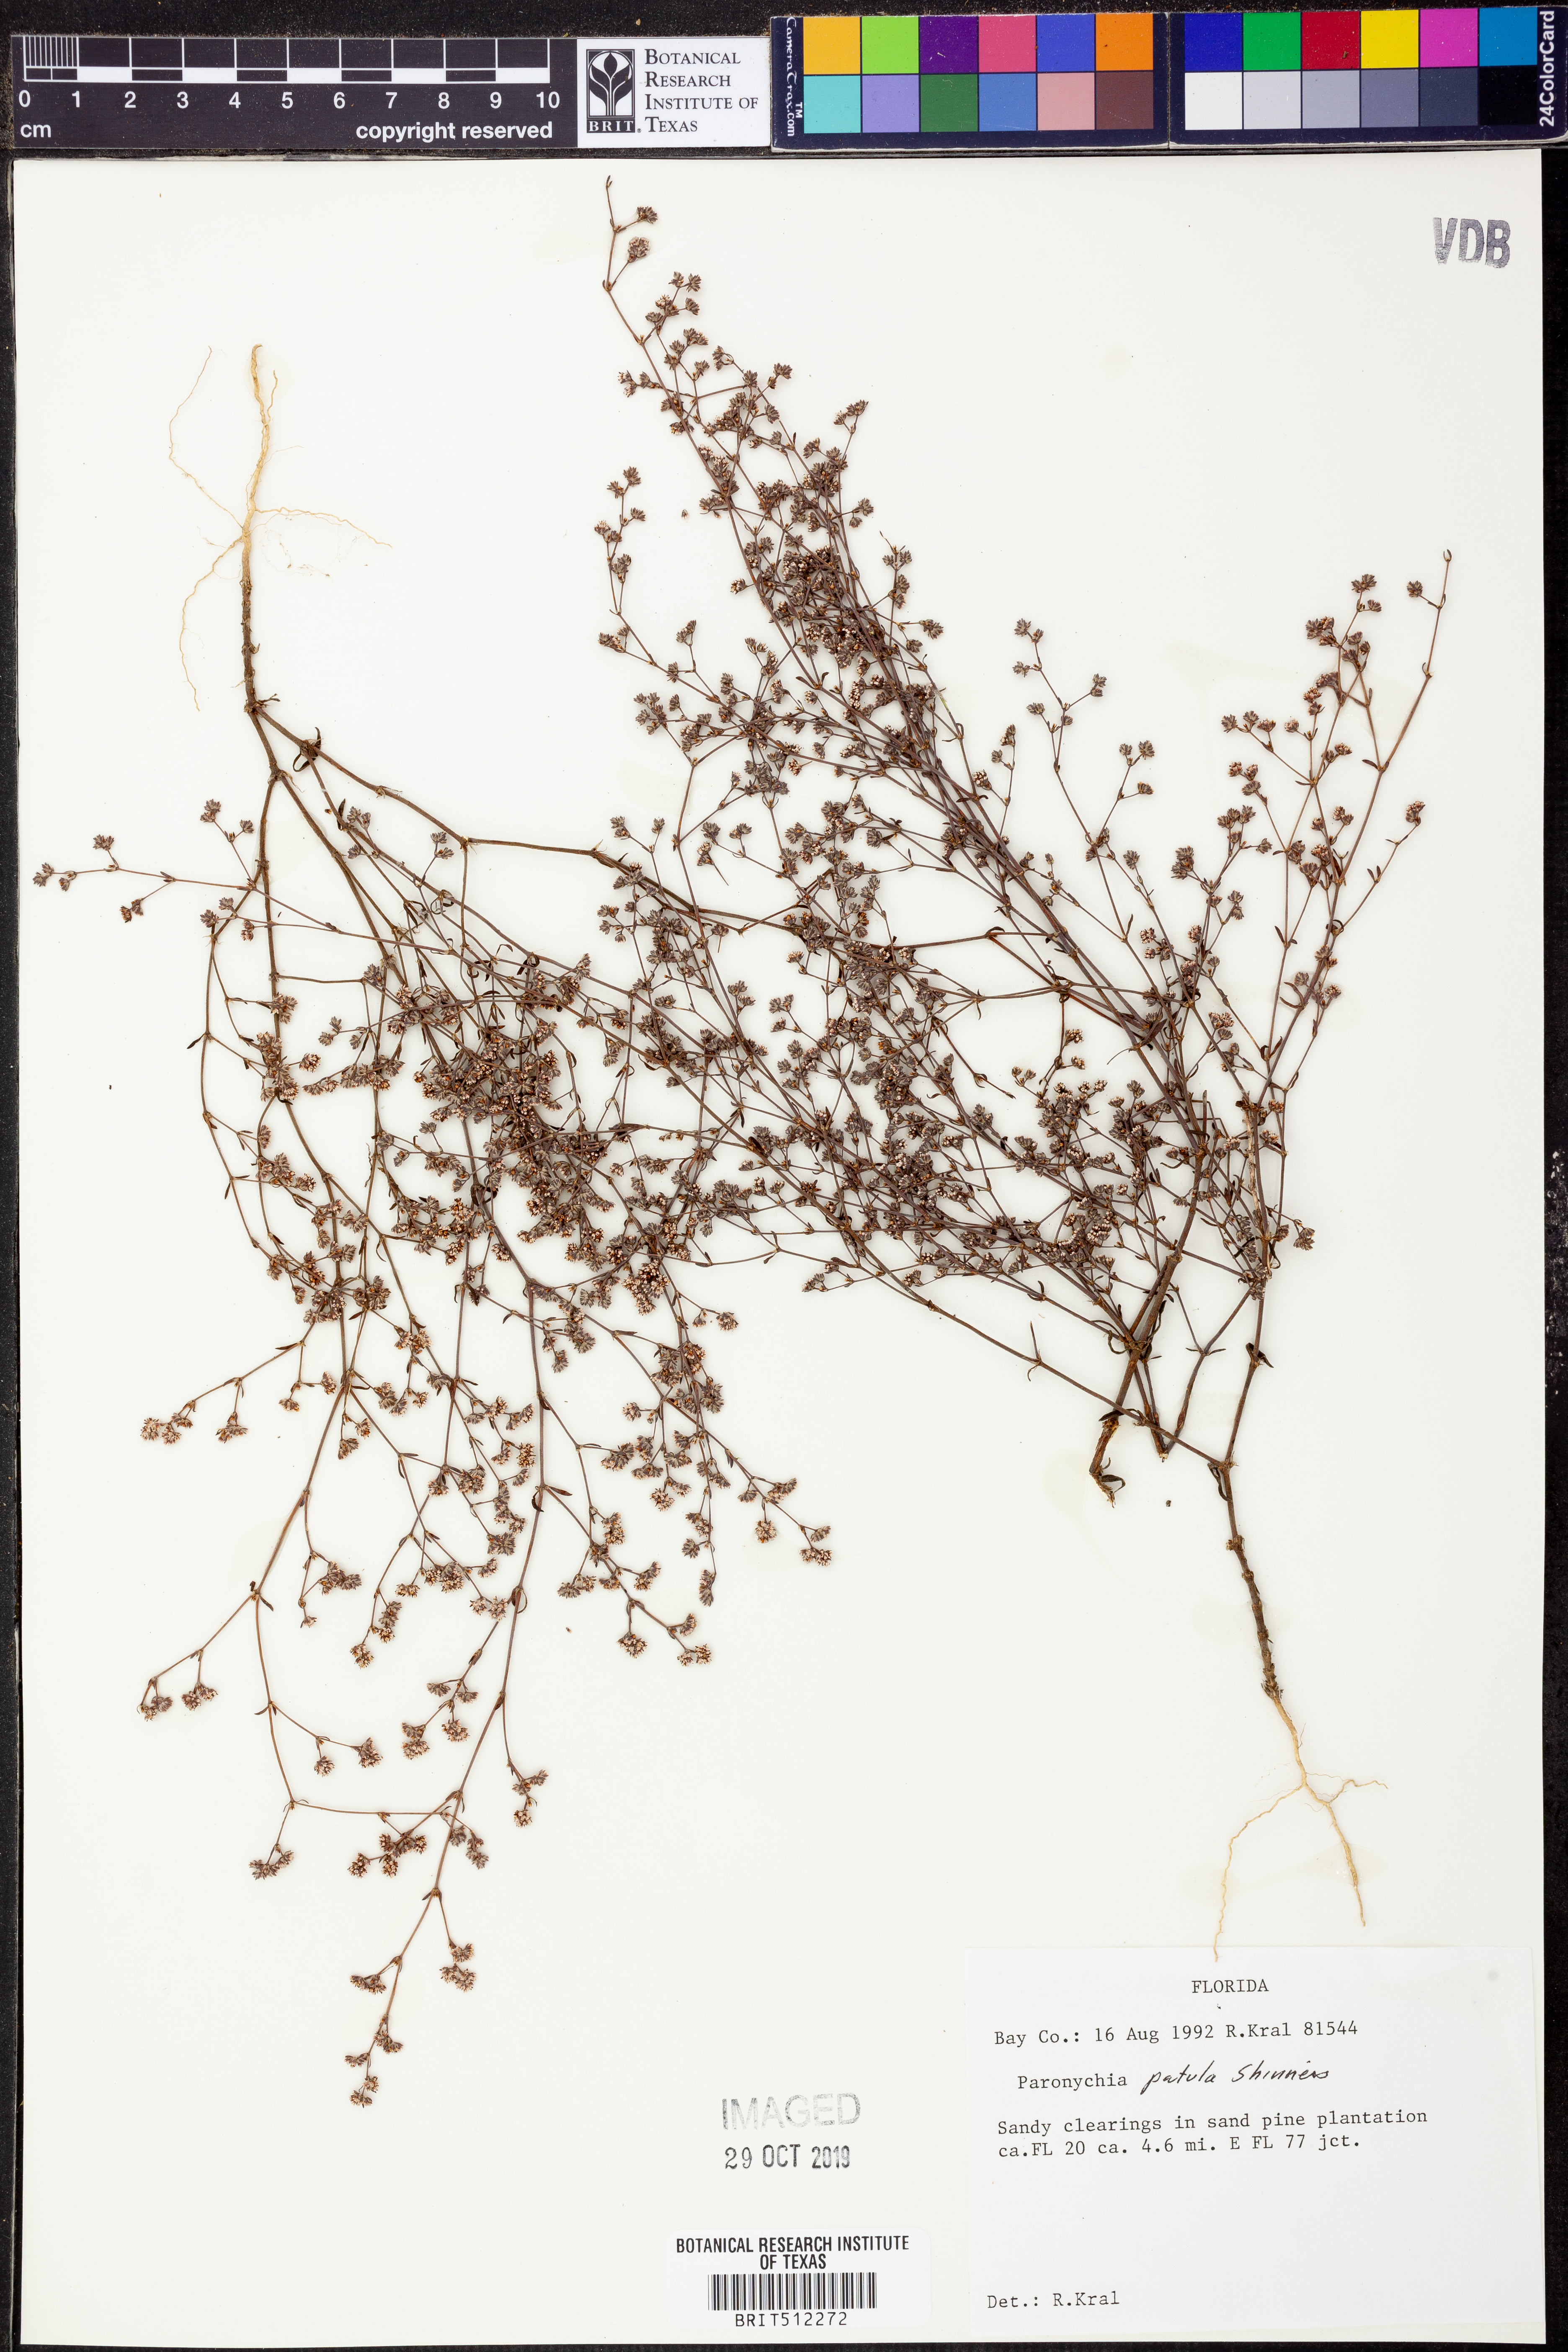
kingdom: Plantae
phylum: Tracheophyta
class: Magnoliopsida
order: Caryophyllales
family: Caryophyllaceae
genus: Paronychia
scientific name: Paronychia patula
